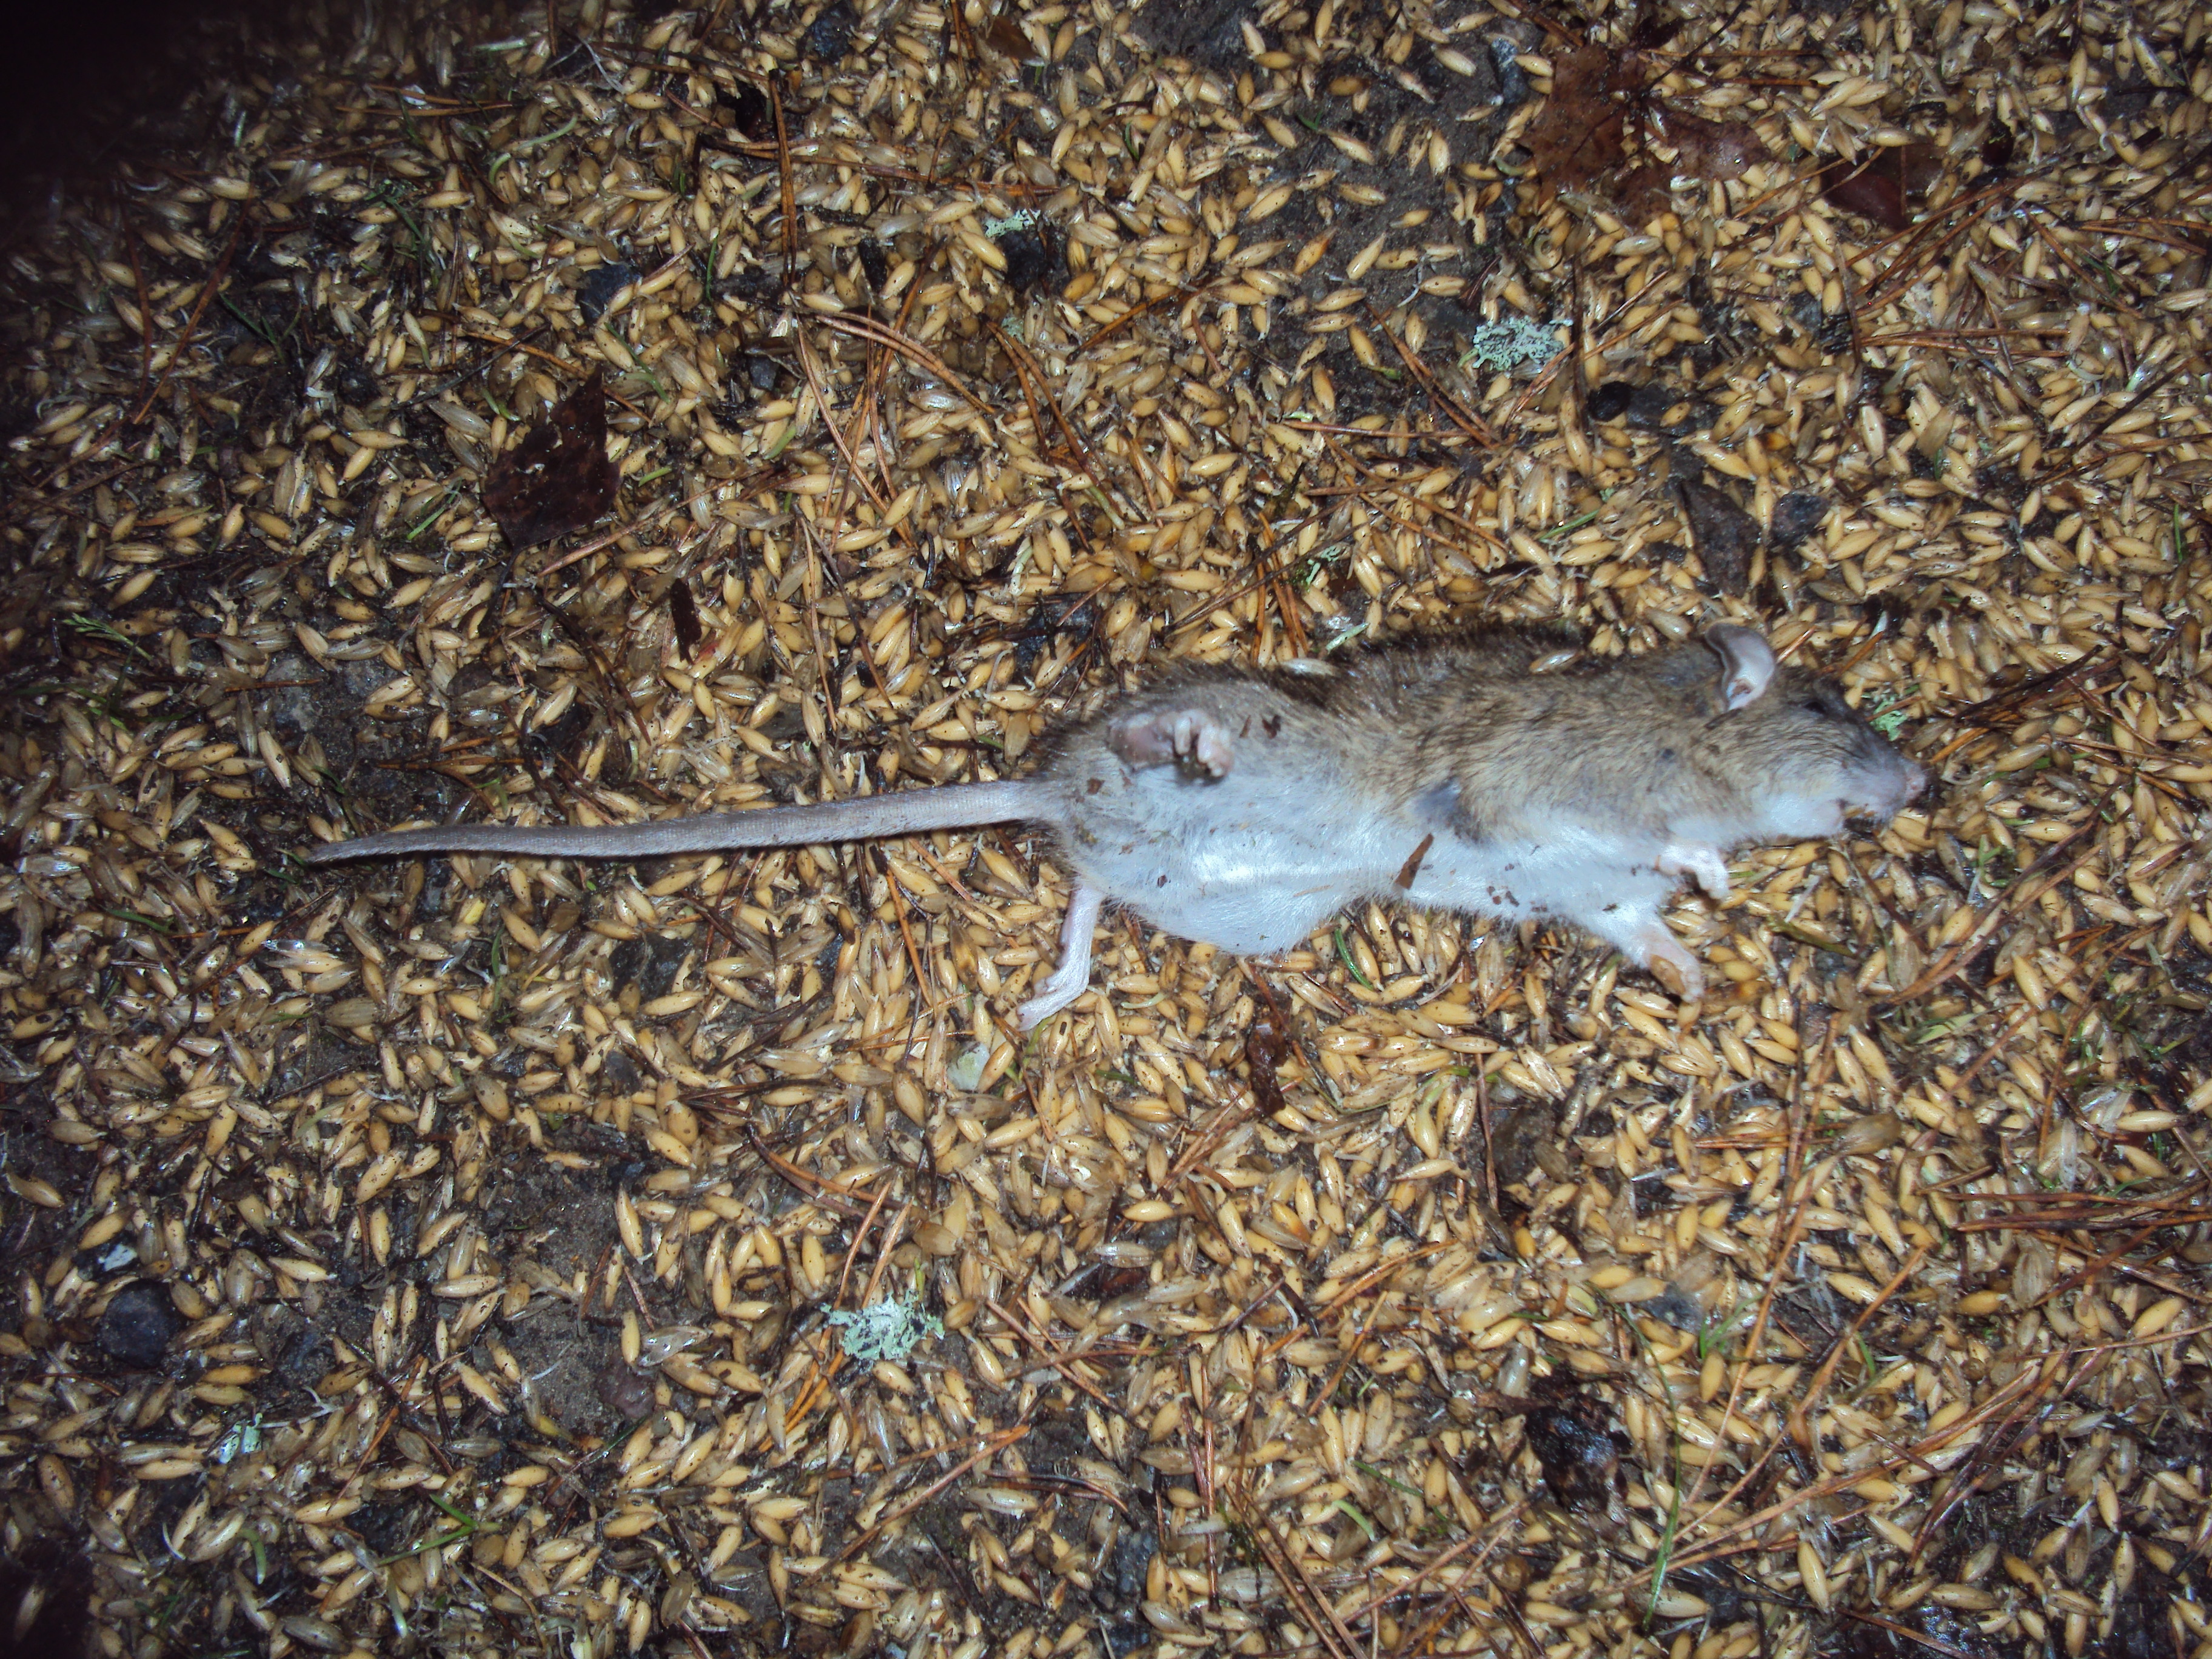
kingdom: Animalia
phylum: Chordata
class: Mammalia
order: Rodentia
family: Muridae
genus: Rattus
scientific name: Rattus norvegicus
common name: Brown rat
